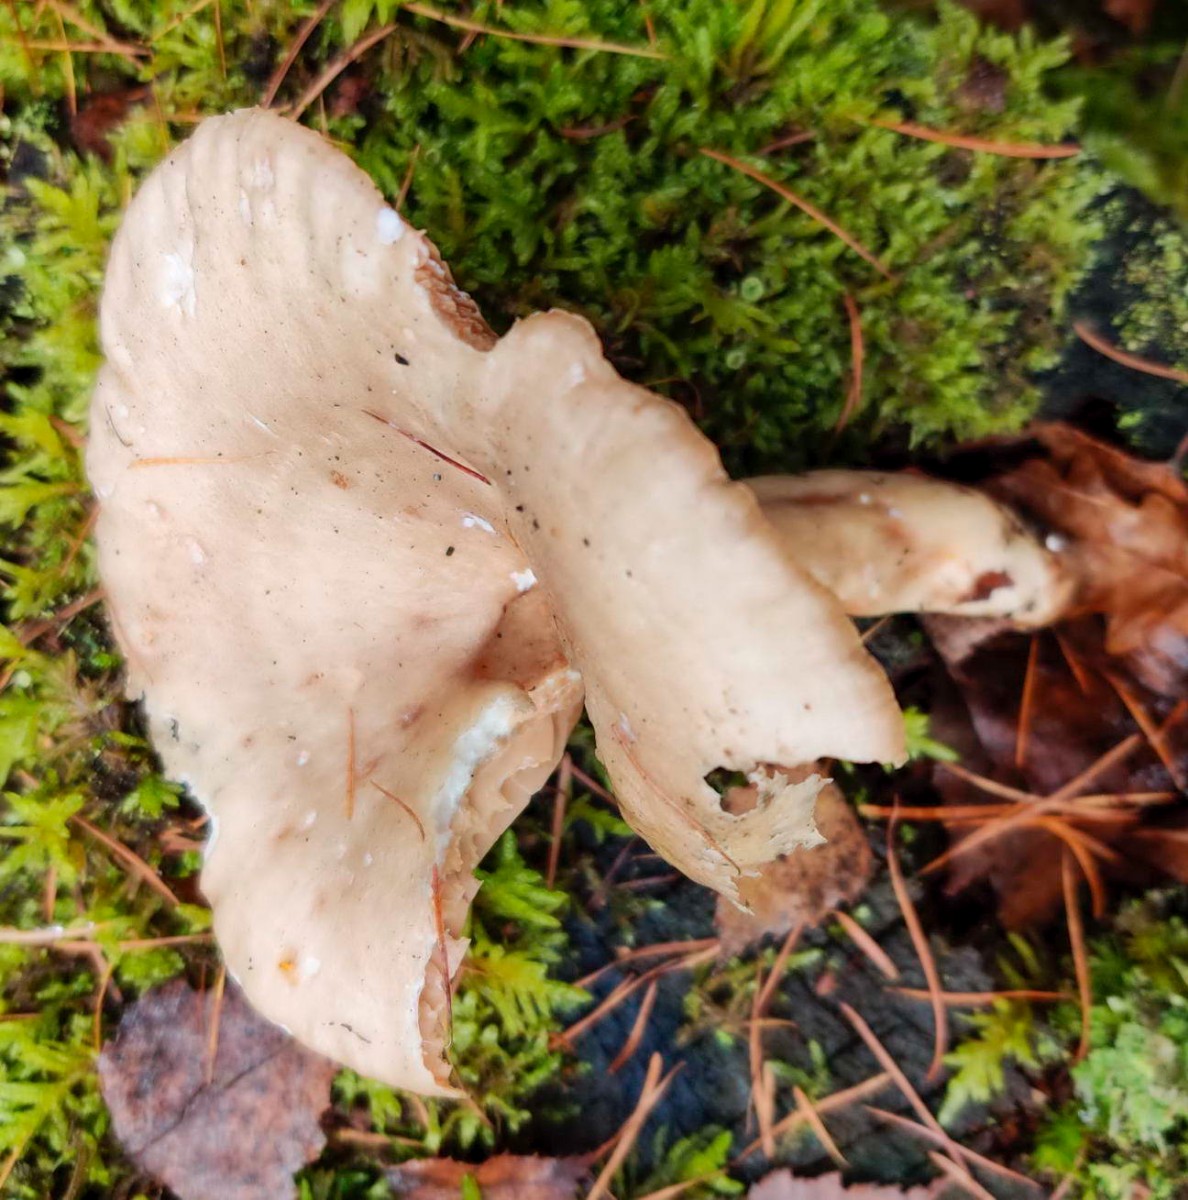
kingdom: Fungi
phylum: Basidiomycota
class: Agaricomycetes
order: Russulales
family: Russulaceae
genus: Lactarius
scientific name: Lactarius ruginosus
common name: gråbrun mælkehat
